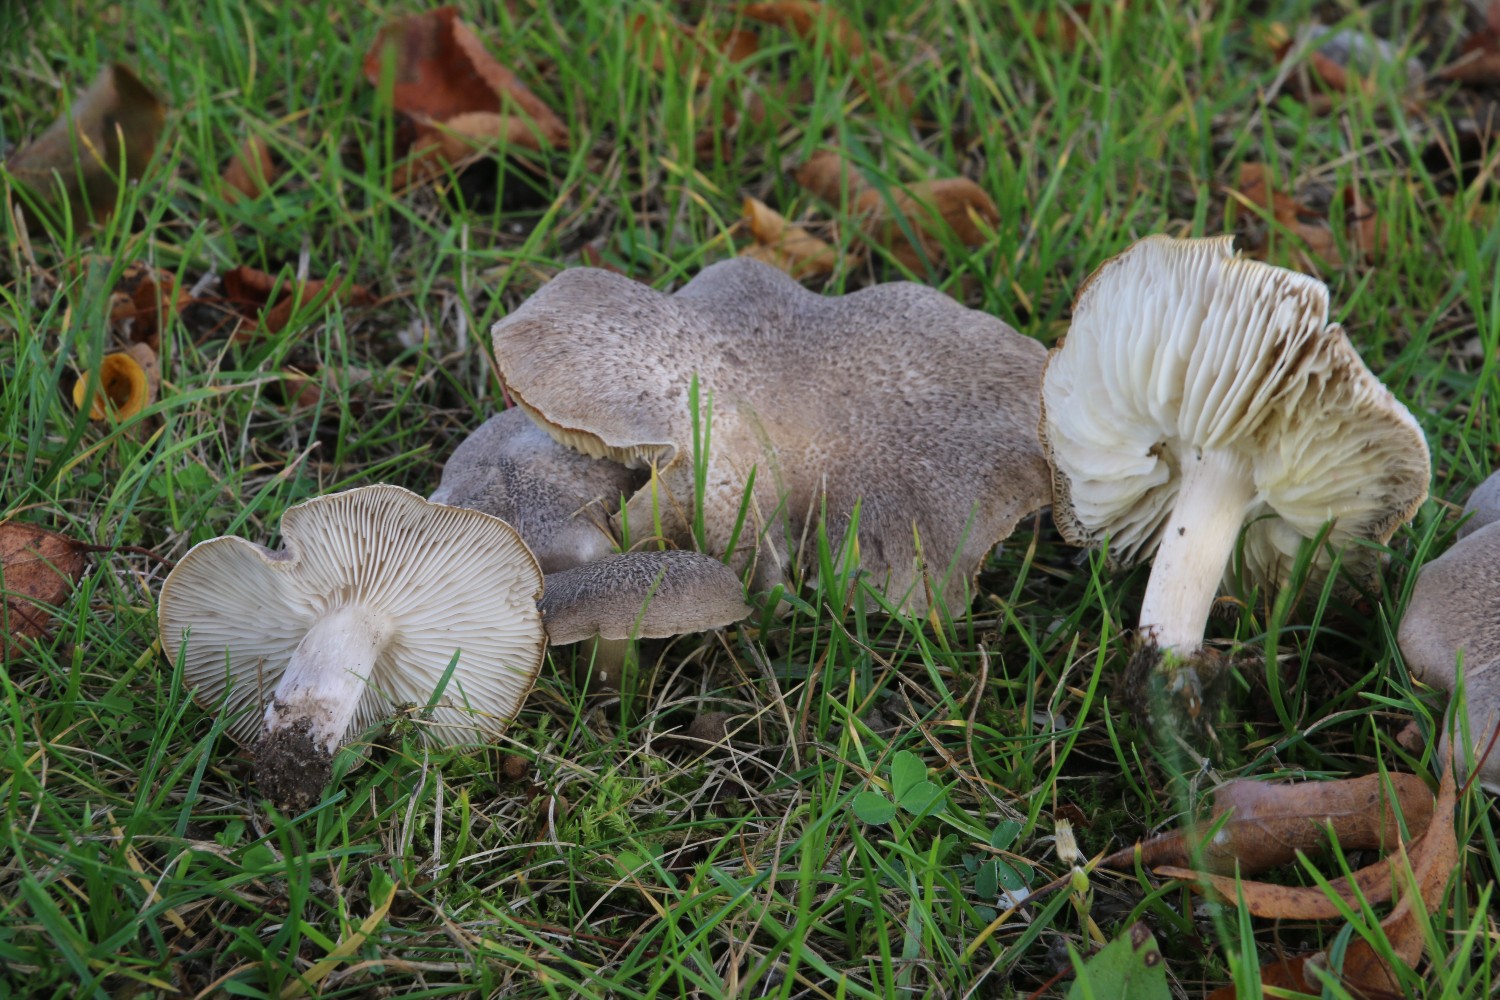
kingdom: Fungi
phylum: Basidiomycota
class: Agaricomycetes
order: Agaricales
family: Tricholomataceae
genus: Tricholoma
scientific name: Tricholoma scalpturatum
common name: gulplettet ridderhat
